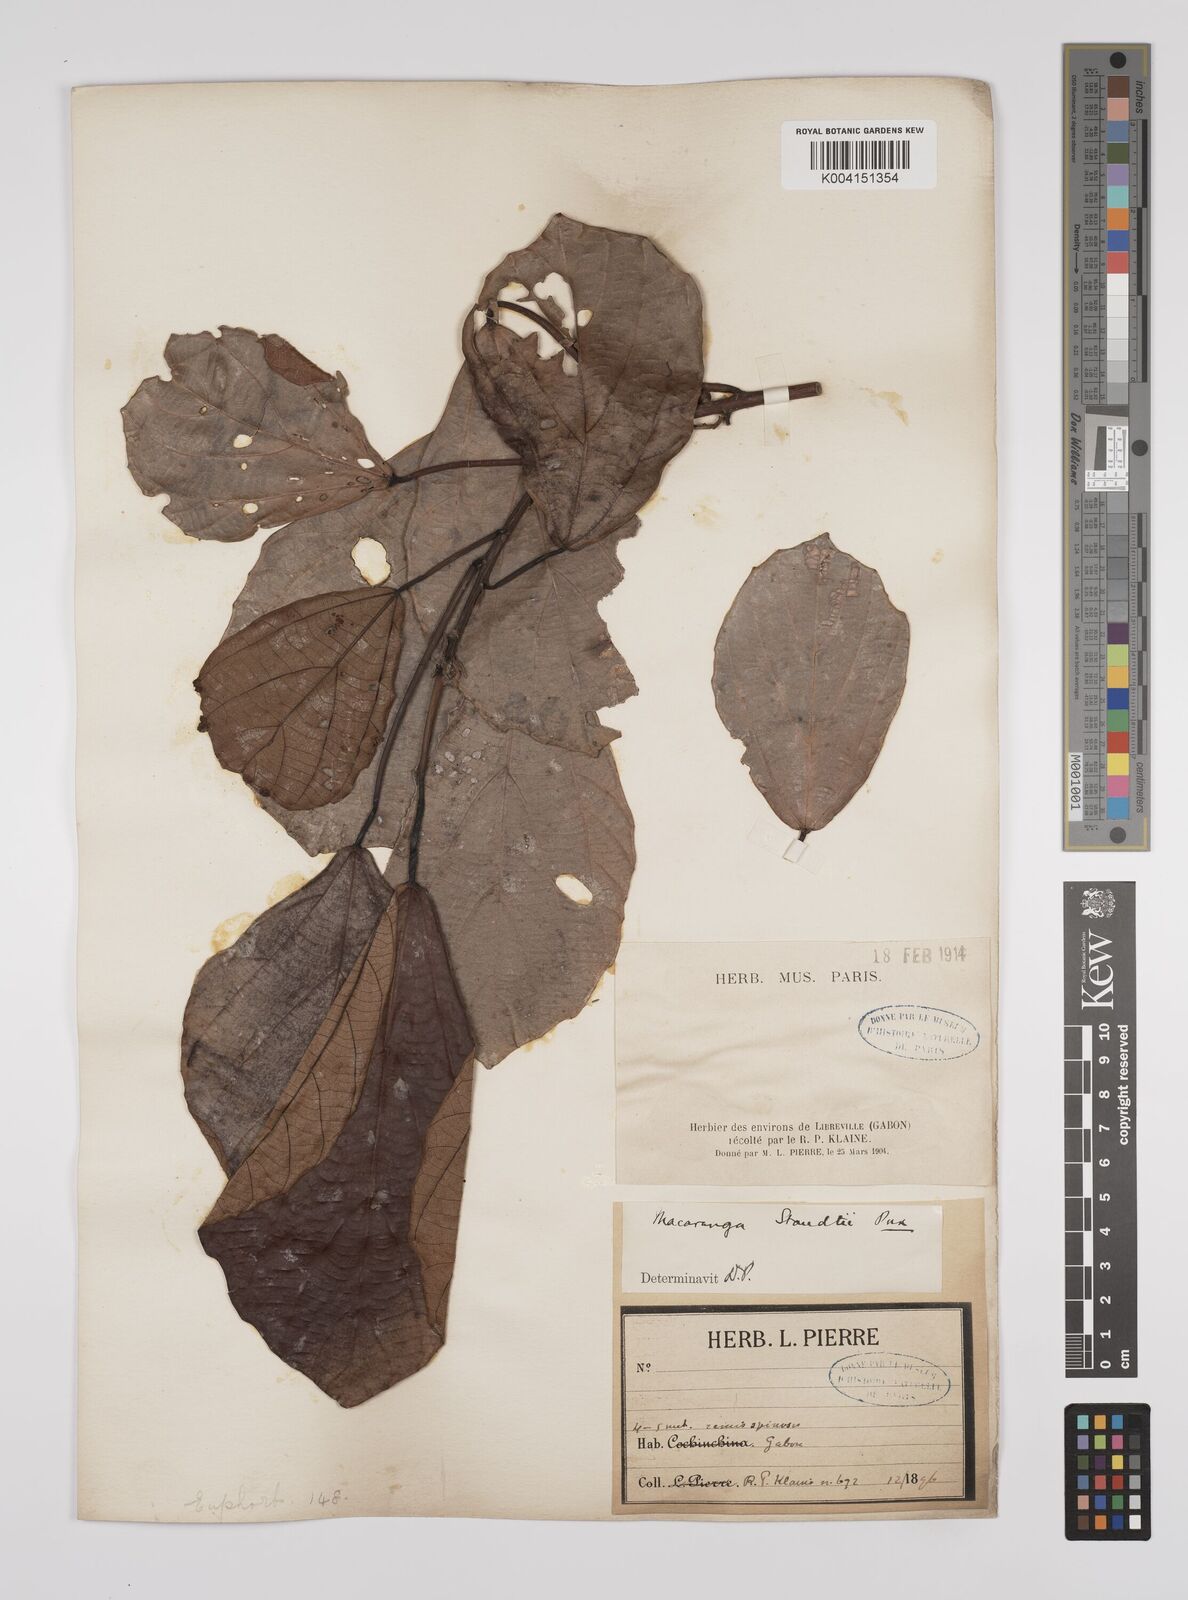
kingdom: Plantae
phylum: Tracheophyta
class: Magnoliopsida
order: Malpighiales
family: Euphorbiaceae
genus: Macaranga
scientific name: Macaranga staudtii
